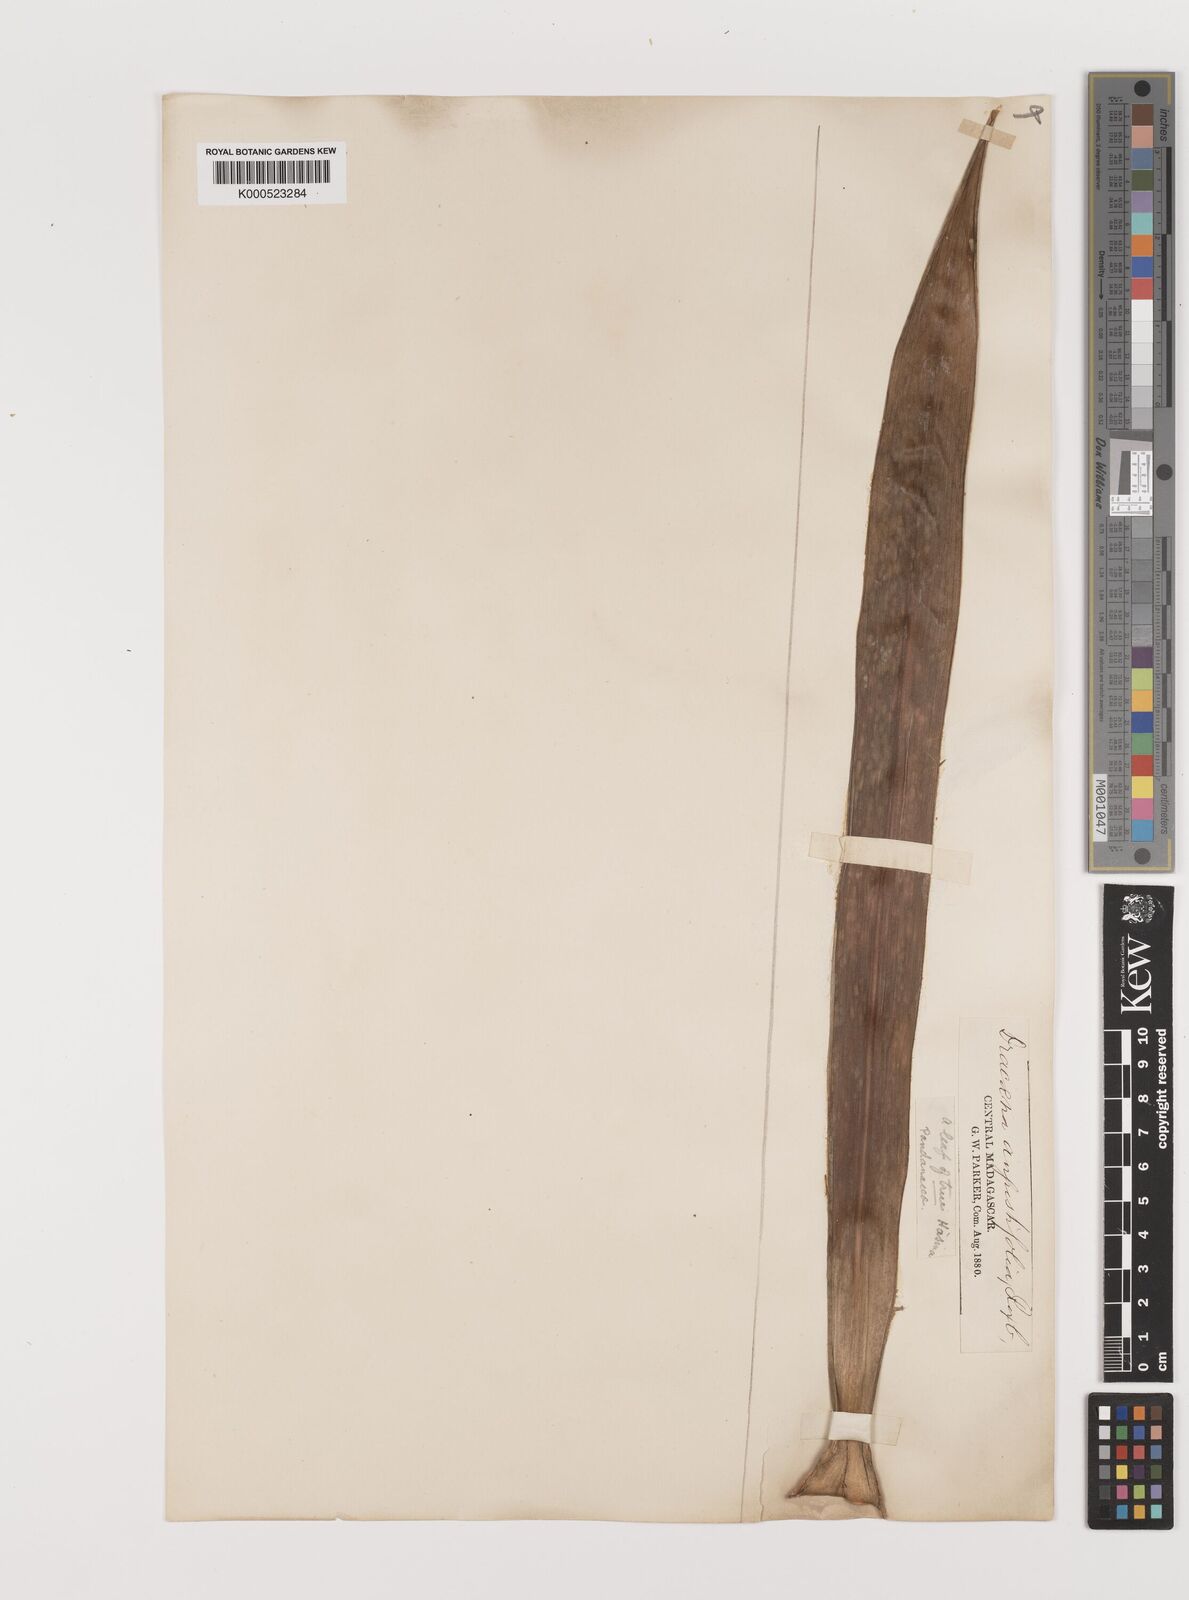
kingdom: Plantae
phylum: Tracheophyta
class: Liliopsida
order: Asparagales
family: Asparagaceae
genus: Dracaena
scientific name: Dracaena angustifolia
